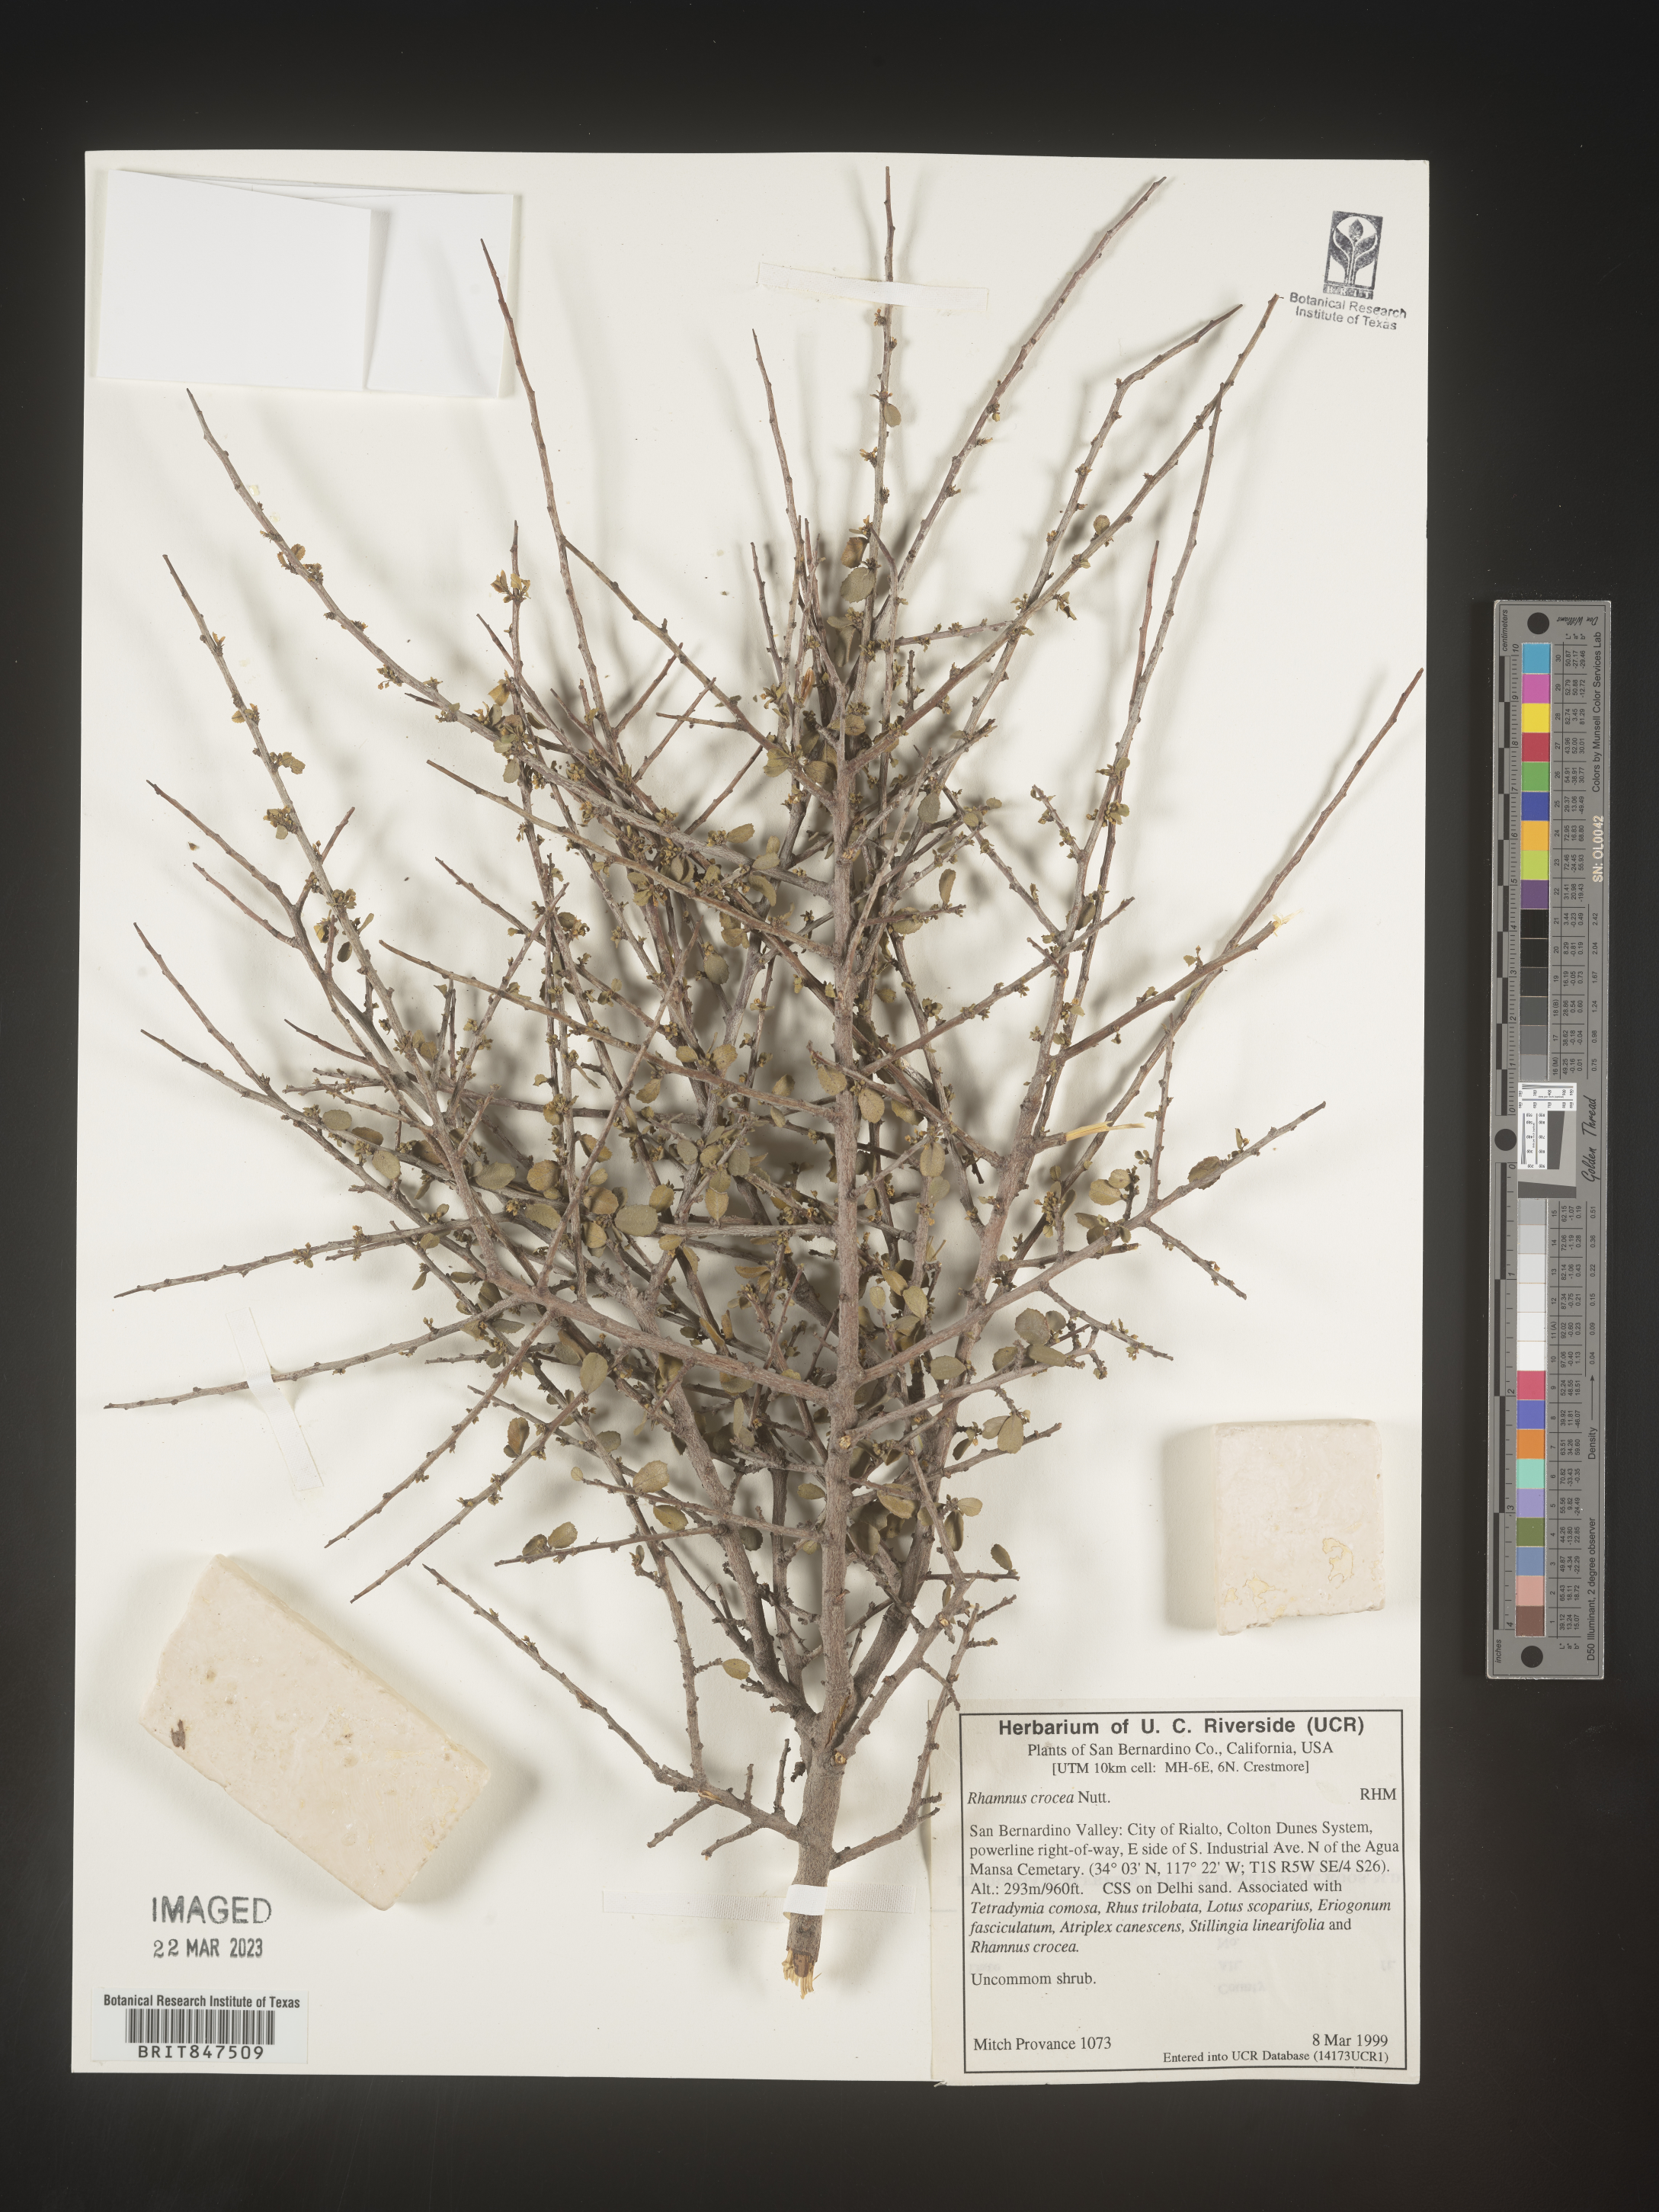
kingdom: Plantae
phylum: Tracheophyta
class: Magnoliopsida
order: Rosales
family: Rhamnaceae
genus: Endotropis
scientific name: Endotropis crocea
